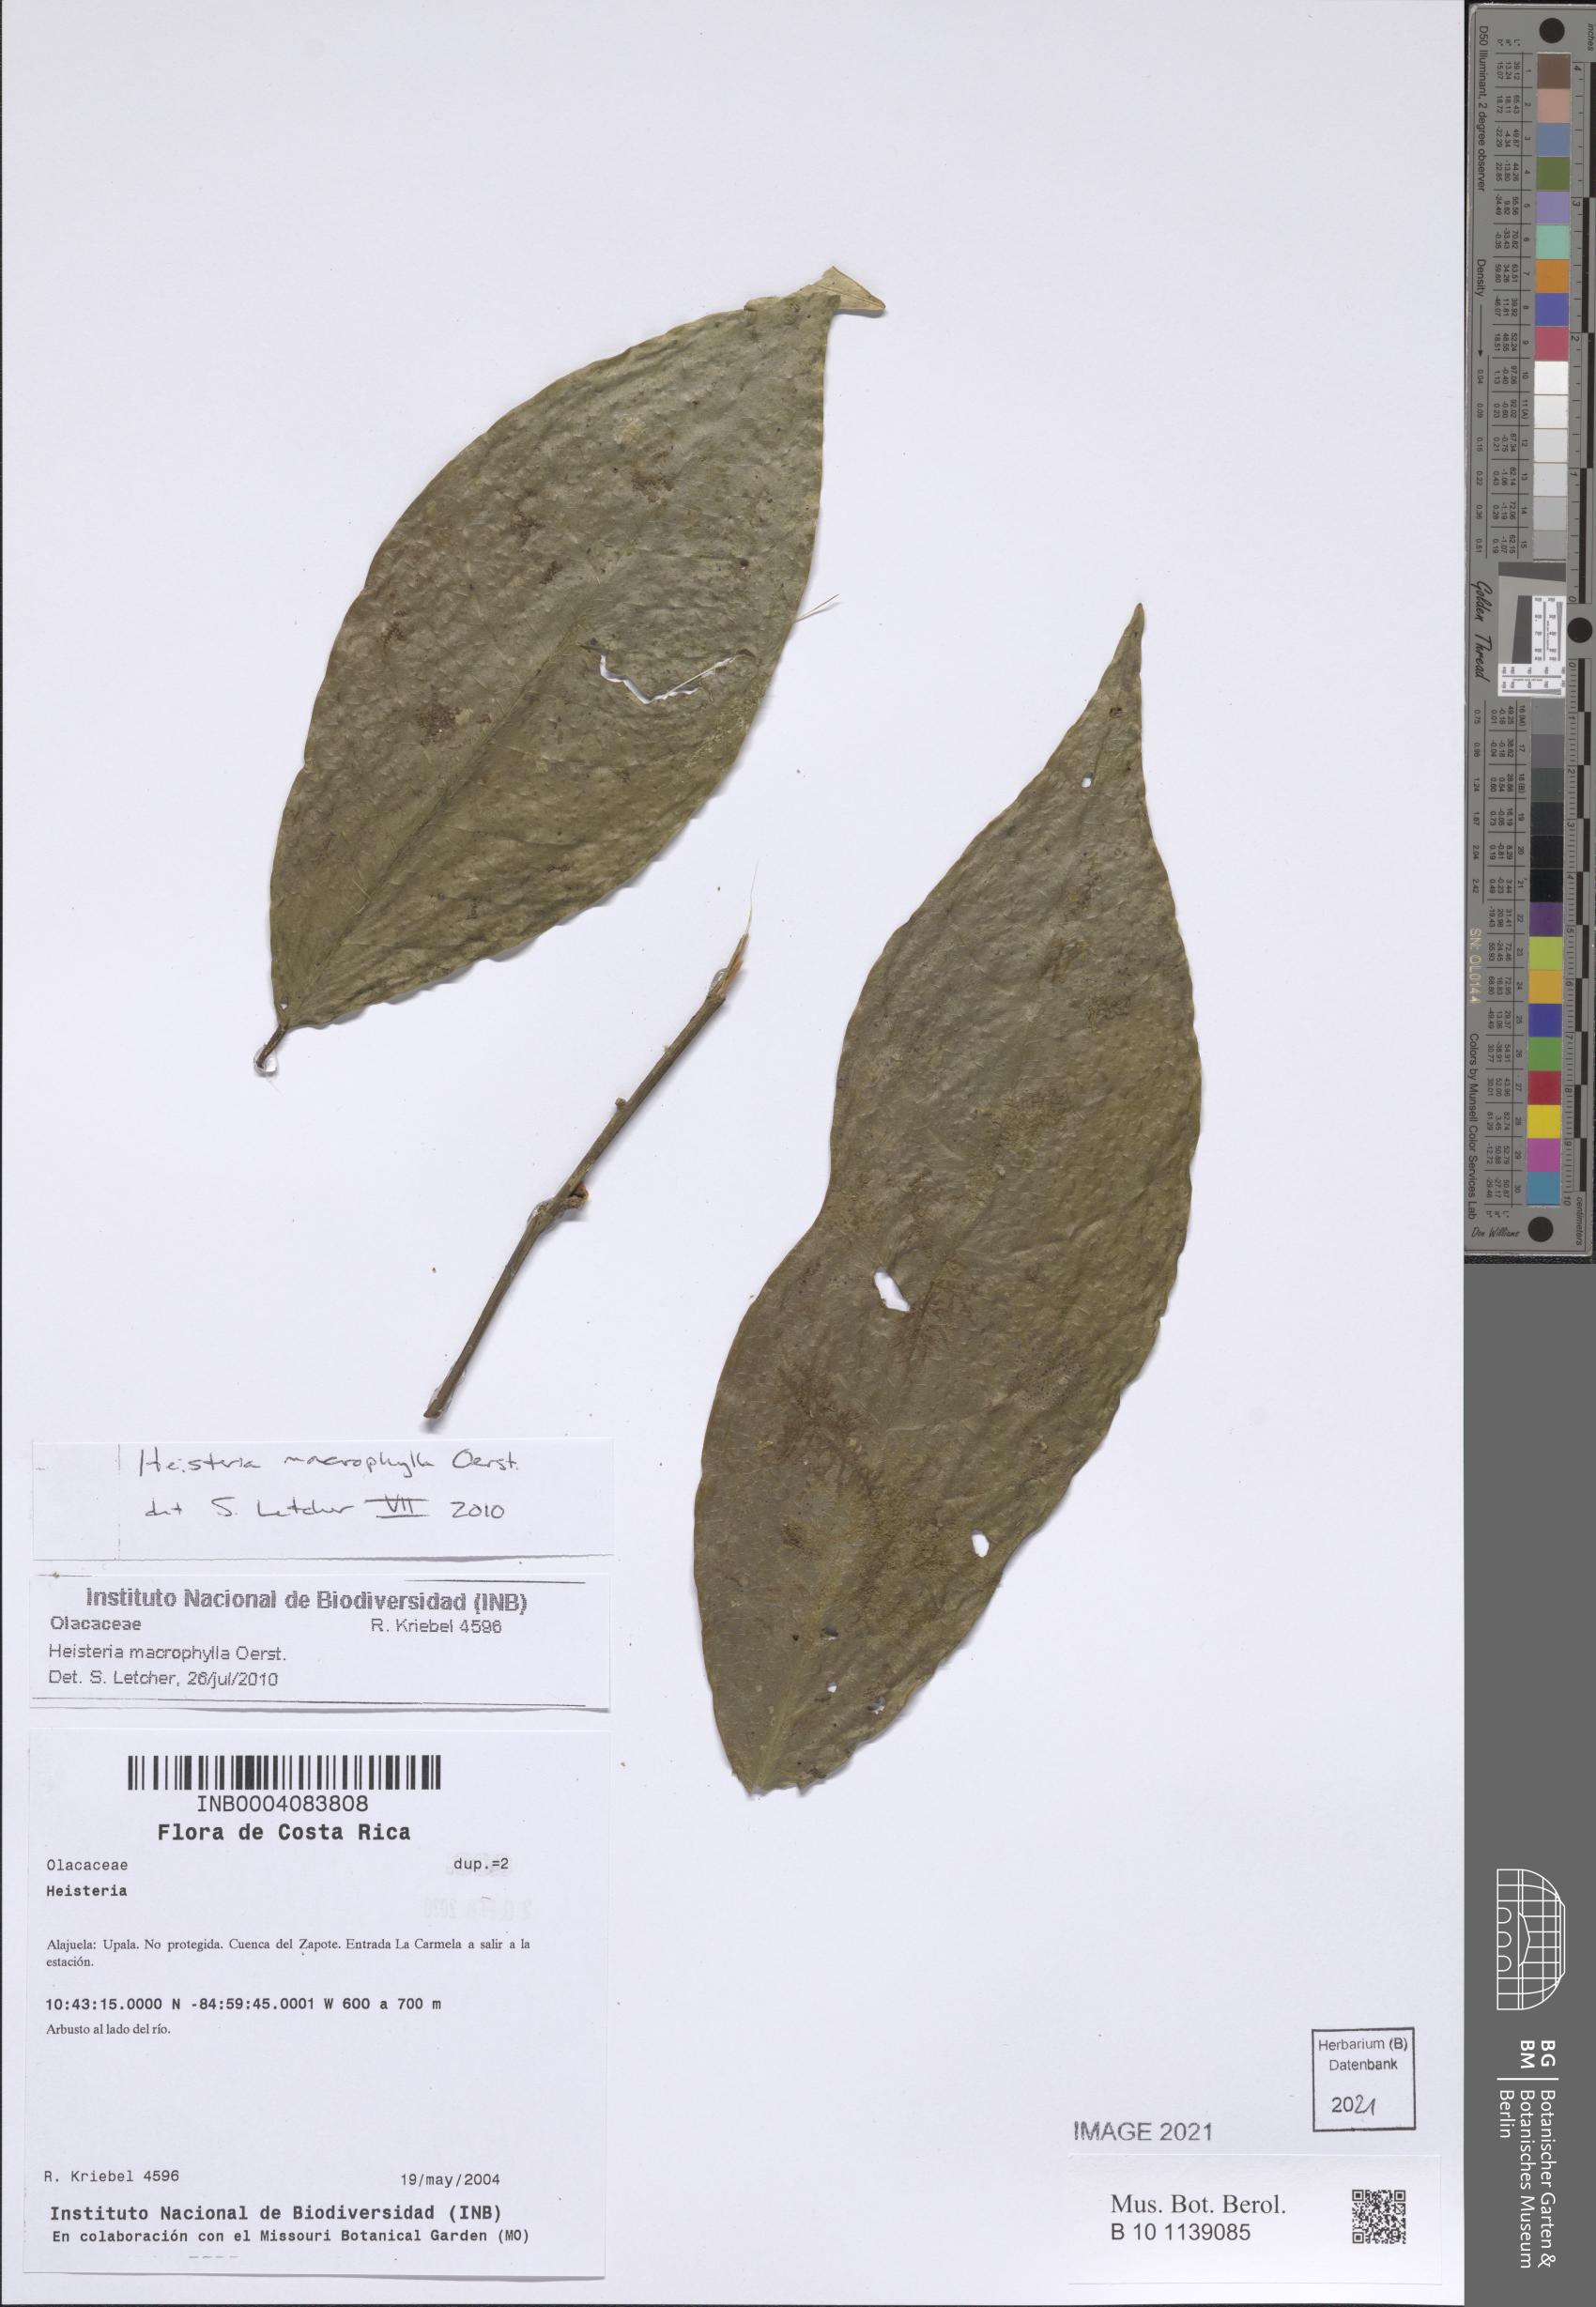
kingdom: Plantae
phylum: Tracheophyta
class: Magnoliopsida
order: Santalales
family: Erythropalaceae
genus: Heisteria
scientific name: Heisteria macrophylla
